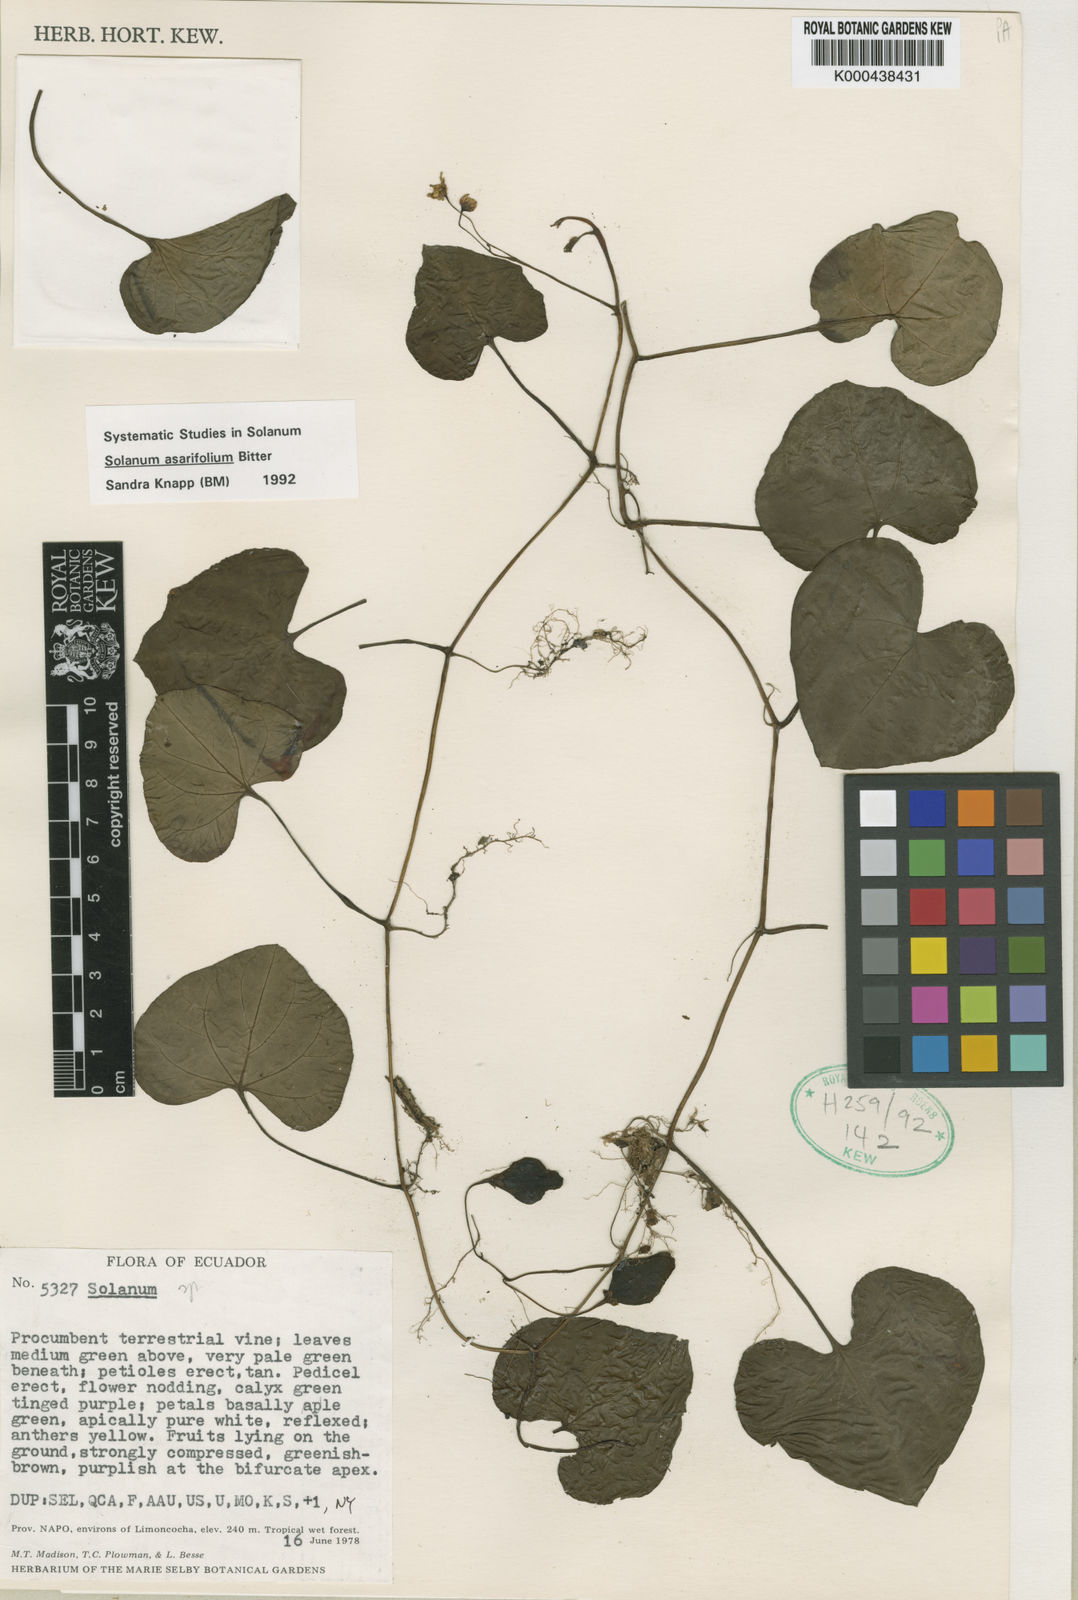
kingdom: Plantae
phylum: Tracheophyta
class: Magnoliopsida
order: Solanales
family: Solanaceae
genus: Solanum
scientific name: Solanum limoncochaense
